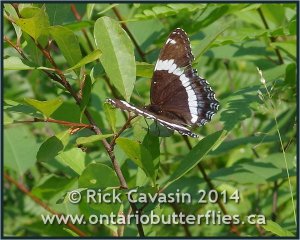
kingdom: Animalia
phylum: Arthropoda
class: Insecta
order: Lepidoptera
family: Nymphalidae
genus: Limenitis
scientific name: Limenitis arthemis
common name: Red-spotted Admiral
